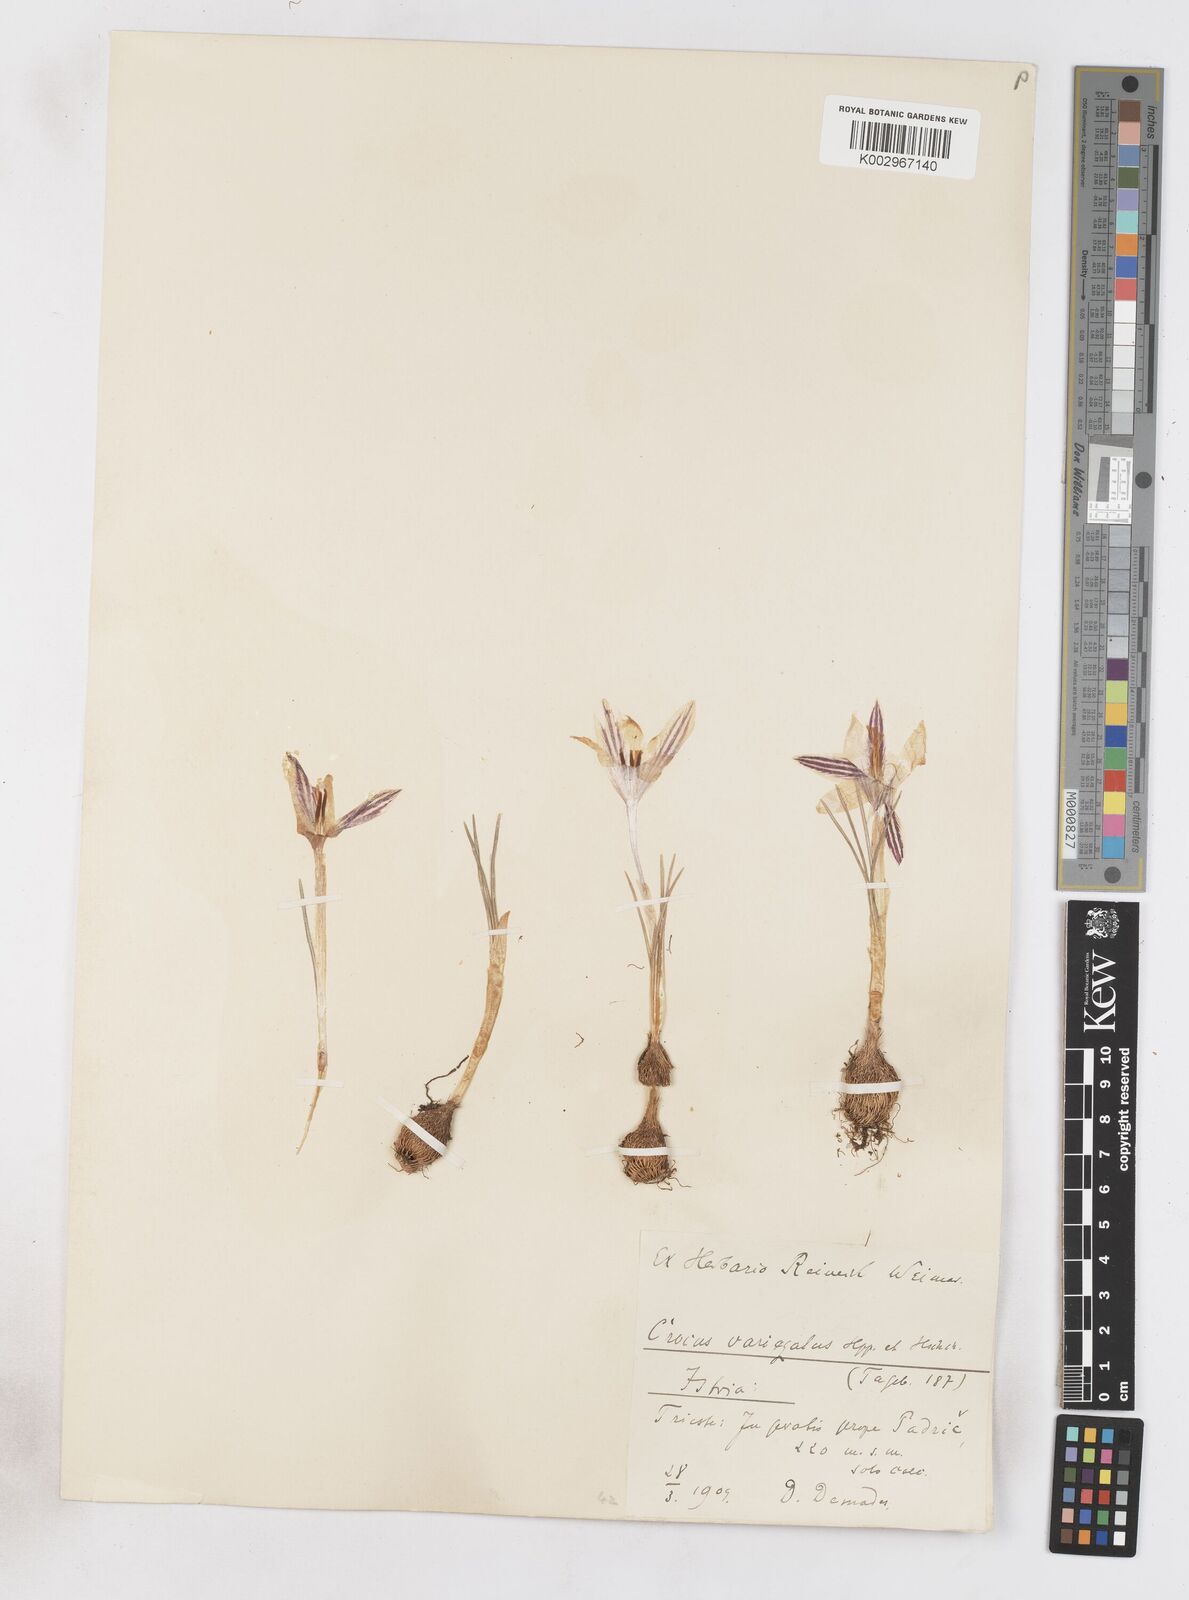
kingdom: Plantae
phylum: Tracheophyta
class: Liliopsida
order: Asparagales
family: Iridaceae
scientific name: Iridaceae
